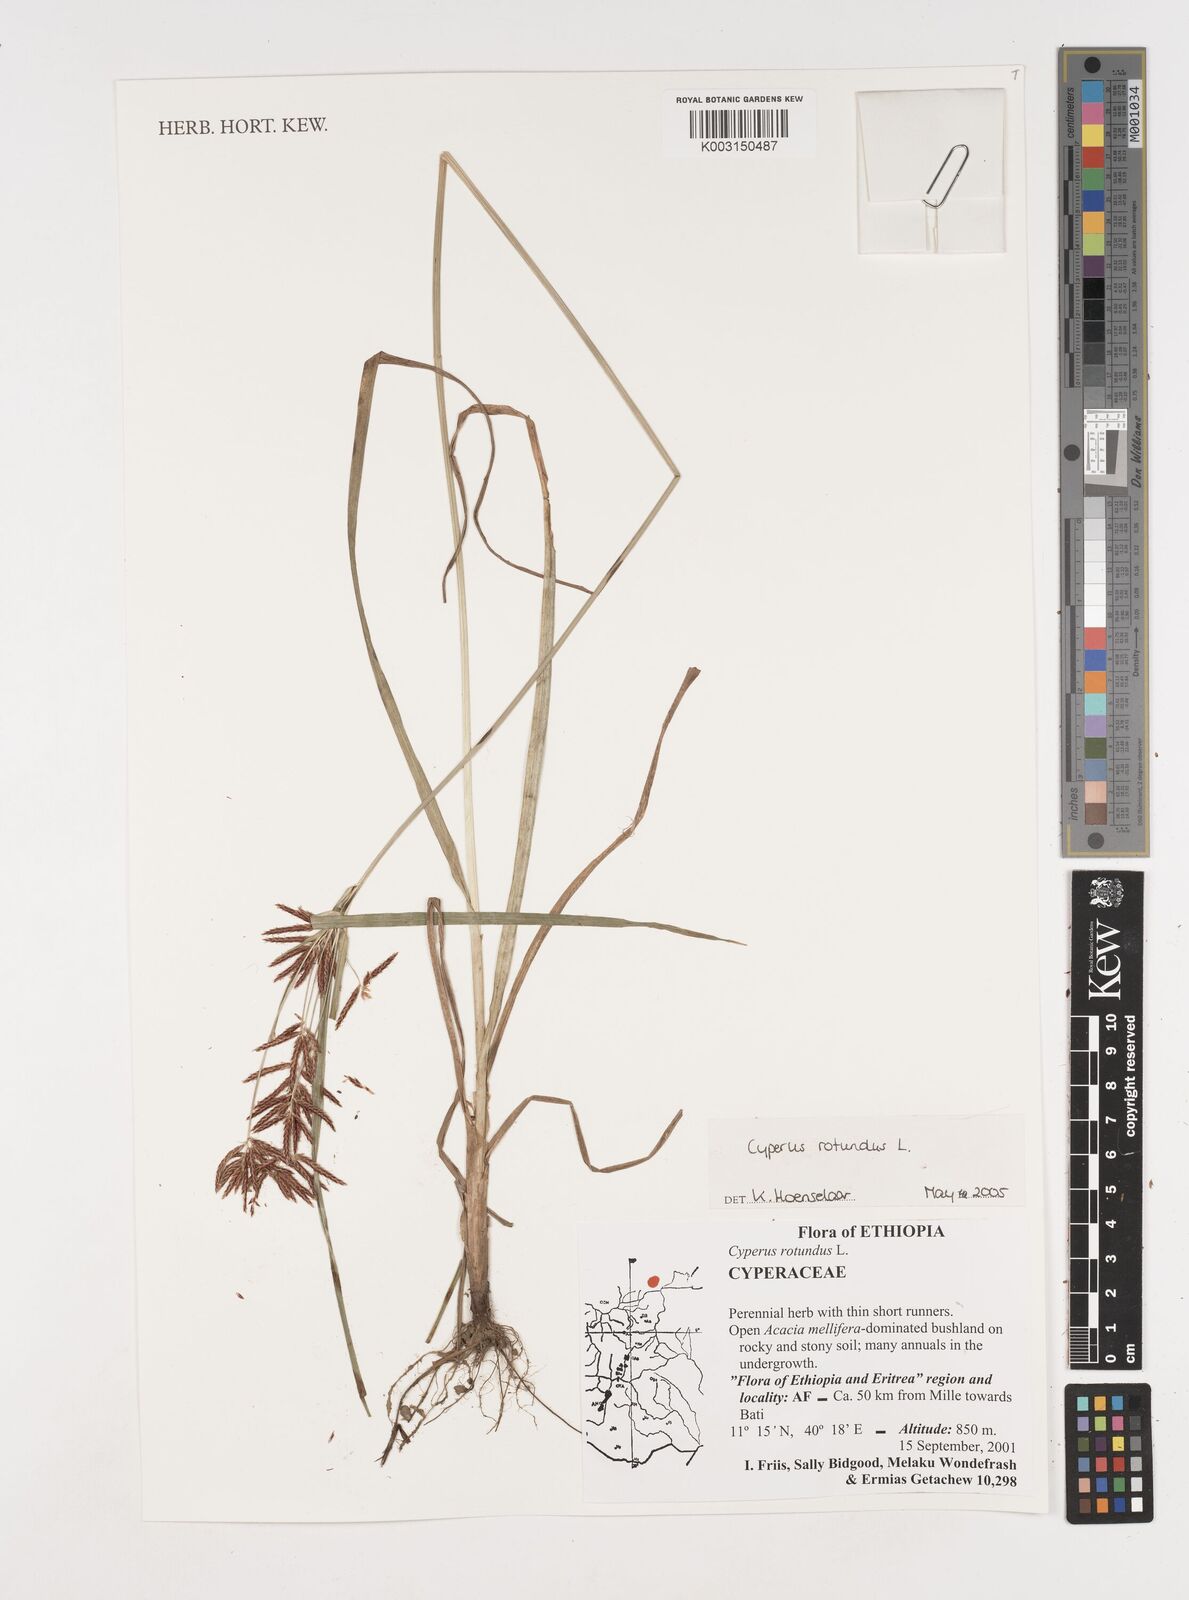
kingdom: Plantae
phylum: Tracheophyta
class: Liliopsida
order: Poales
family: Cyperaceae
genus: Cyperus
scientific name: Cyperus rotundus
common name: Nutgrass
